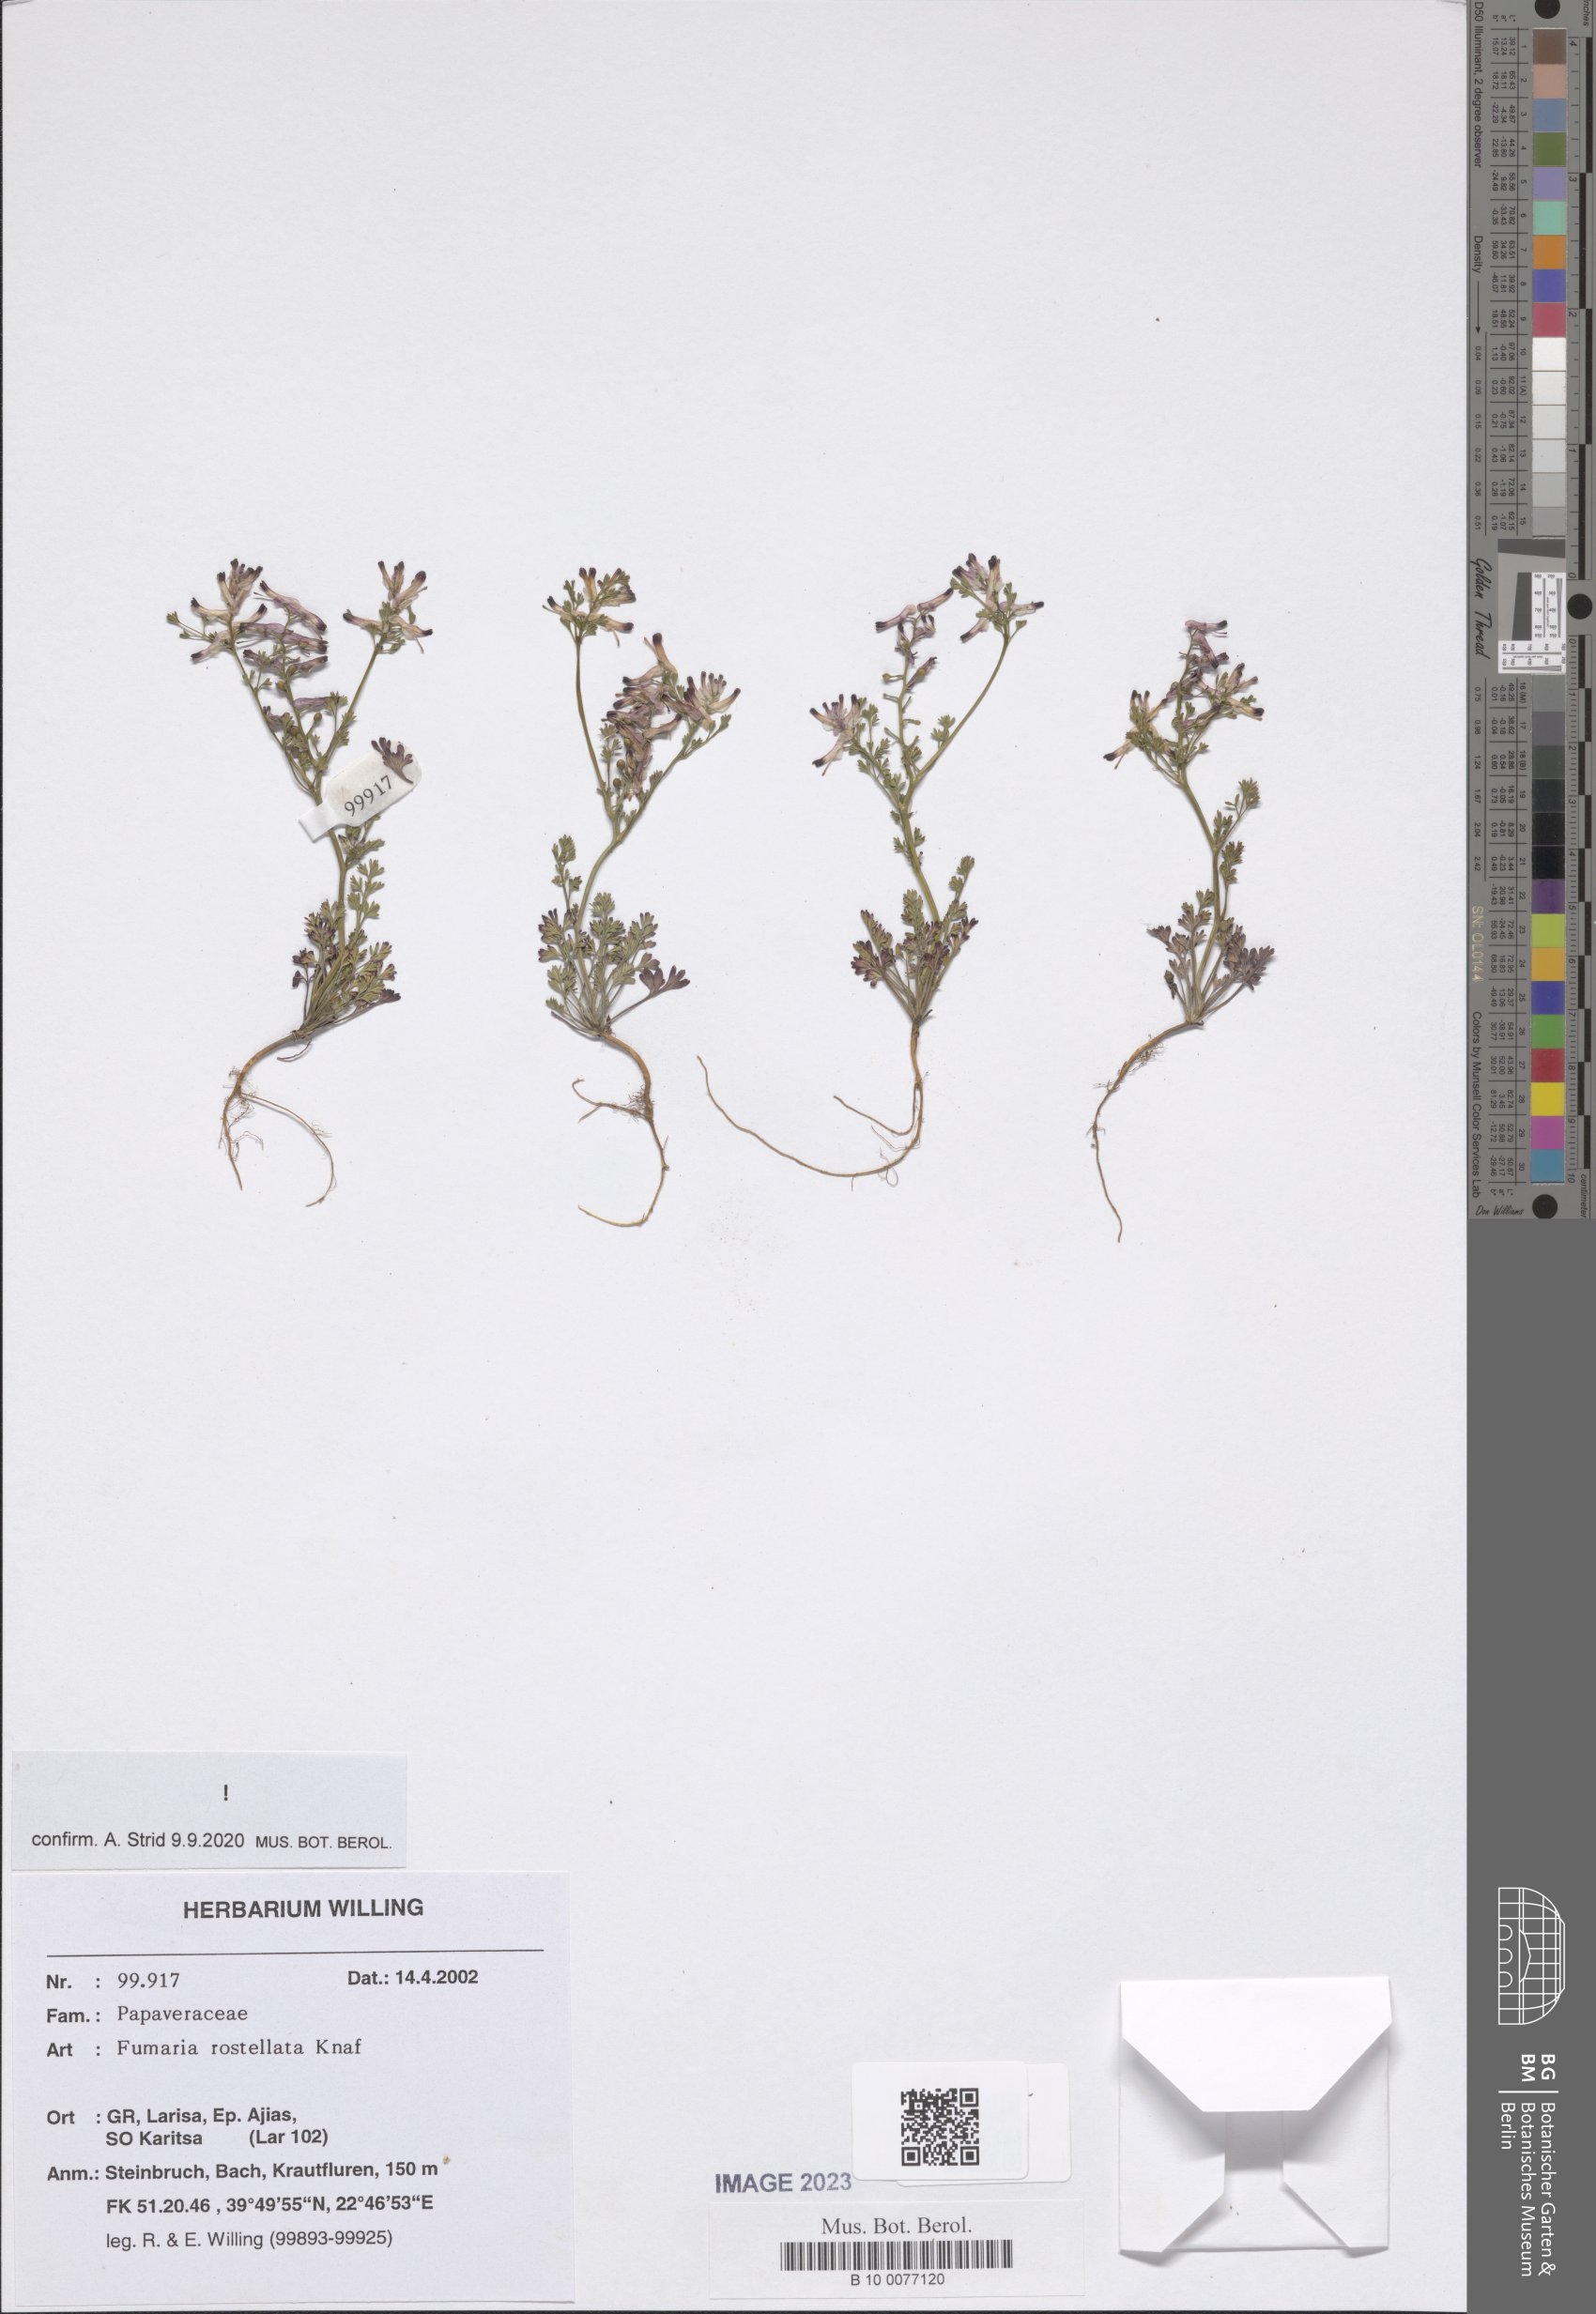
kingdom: Plantae
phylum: Tracheophyta
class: Magnoliopsida
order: Ranunculales
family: Papaveraceae
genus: Fumaria
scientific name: Fumaria rostellata
